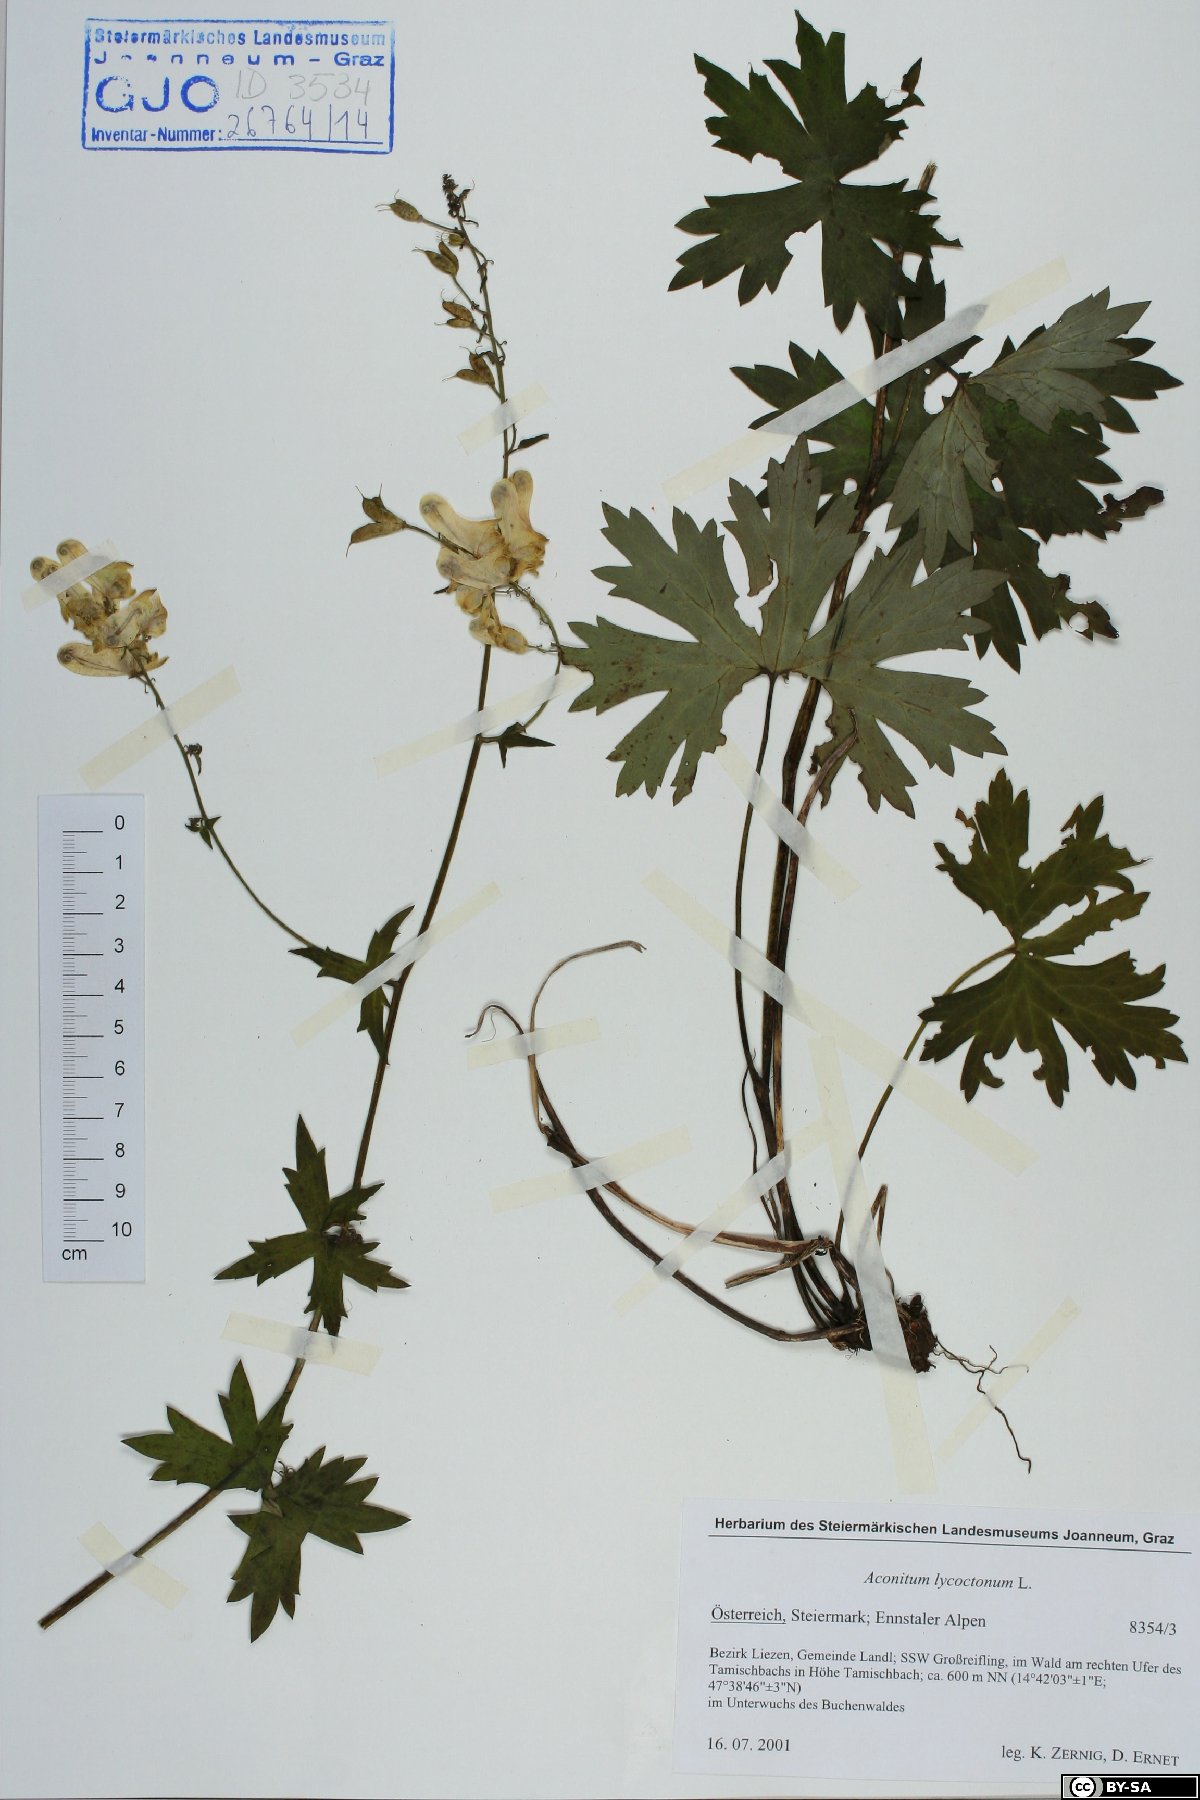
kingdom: Plantae
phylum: Tracheophyta
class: Magnoliopsida
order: Ranunculales
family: Ranunculaceae
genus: Aconitum
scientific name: Aconitum lycoctonum
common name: Wolf's-bane
